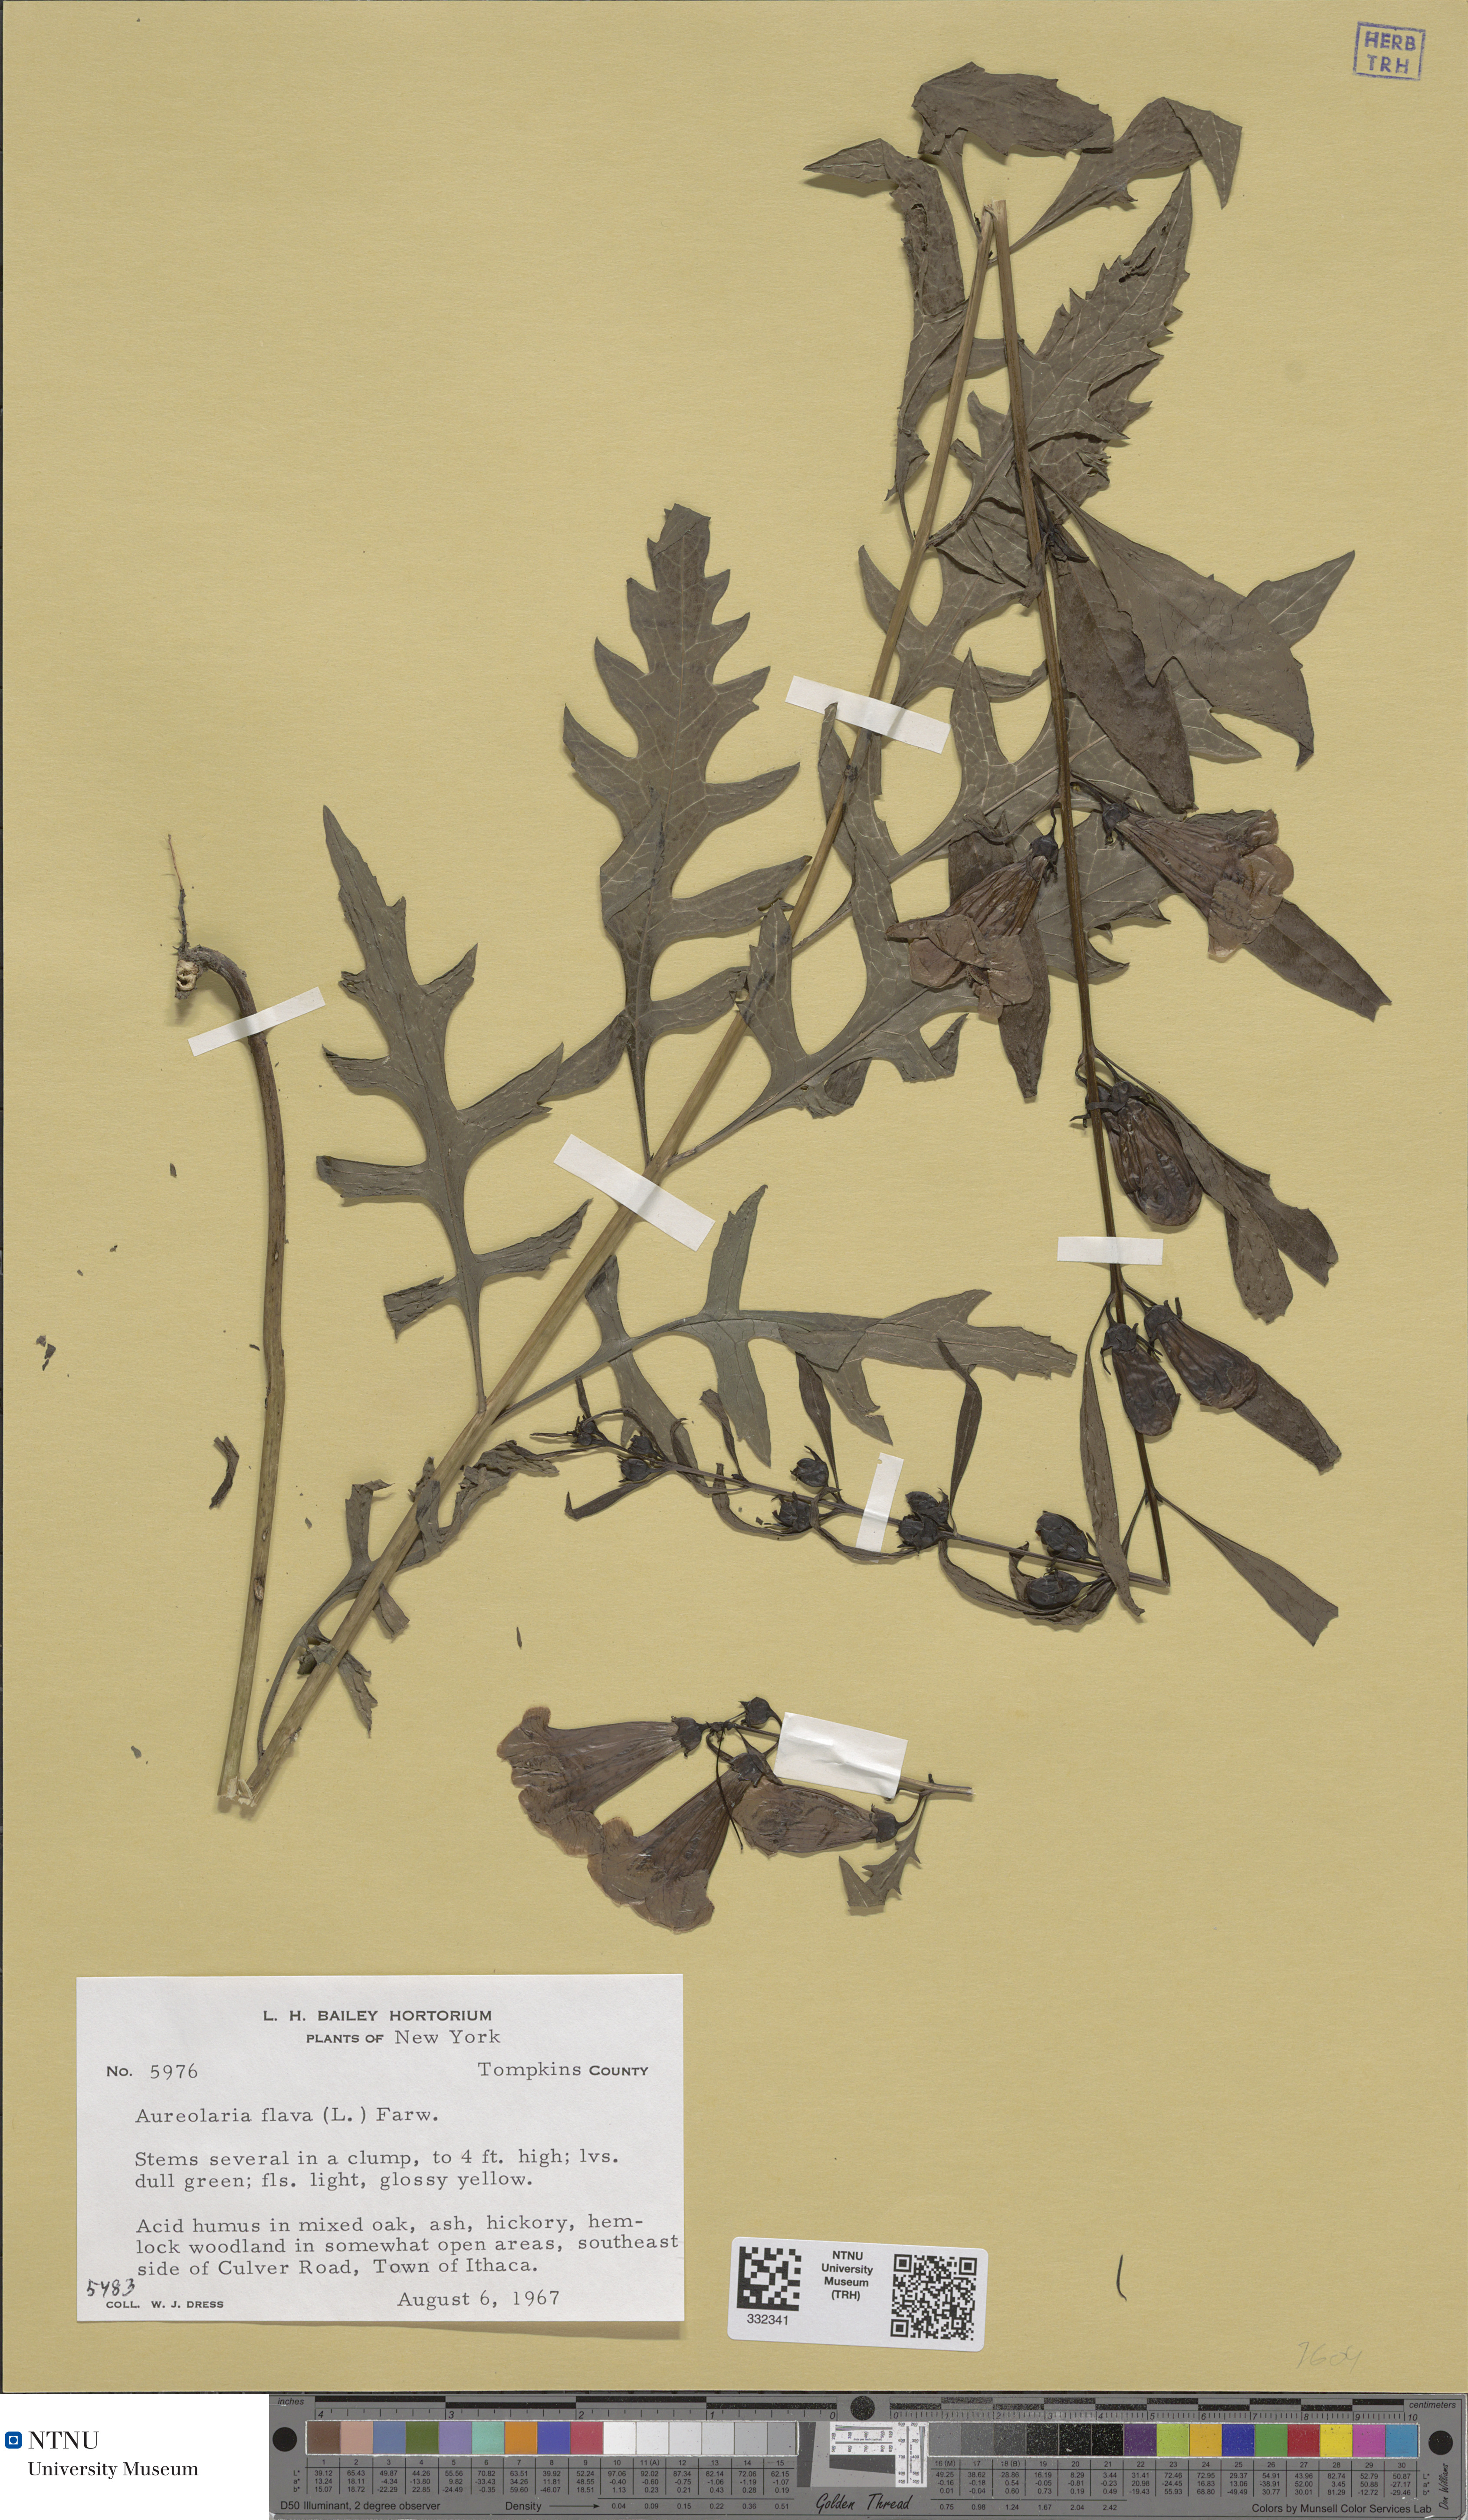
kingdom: Plantae
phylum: Tracheophyta
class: Magnoliopsida
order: Lamiales
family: Orobanchaceae
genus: Aureolaria
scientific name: Aureolaria flava
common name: Smooth false foxglove
